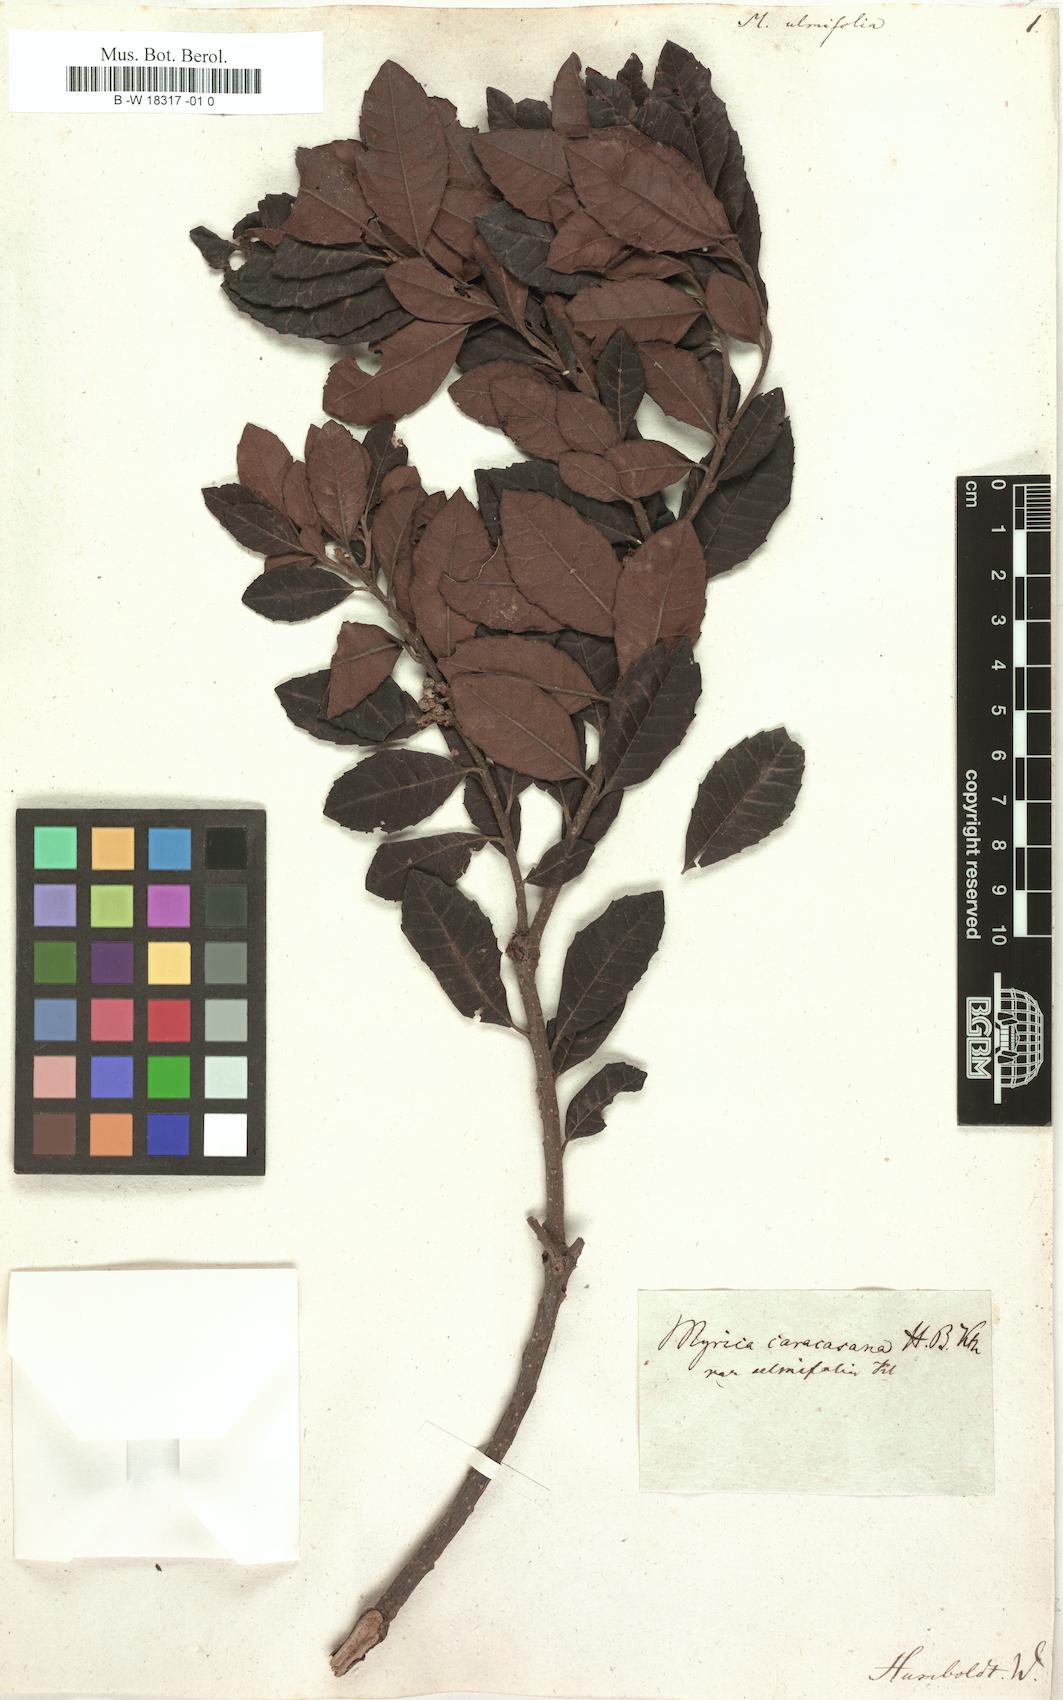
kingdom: Plantae
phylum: Tracheophyta
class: Magnoliopsida
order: Fagales
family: Myricaceae
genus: Myrica
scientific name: Myrica
